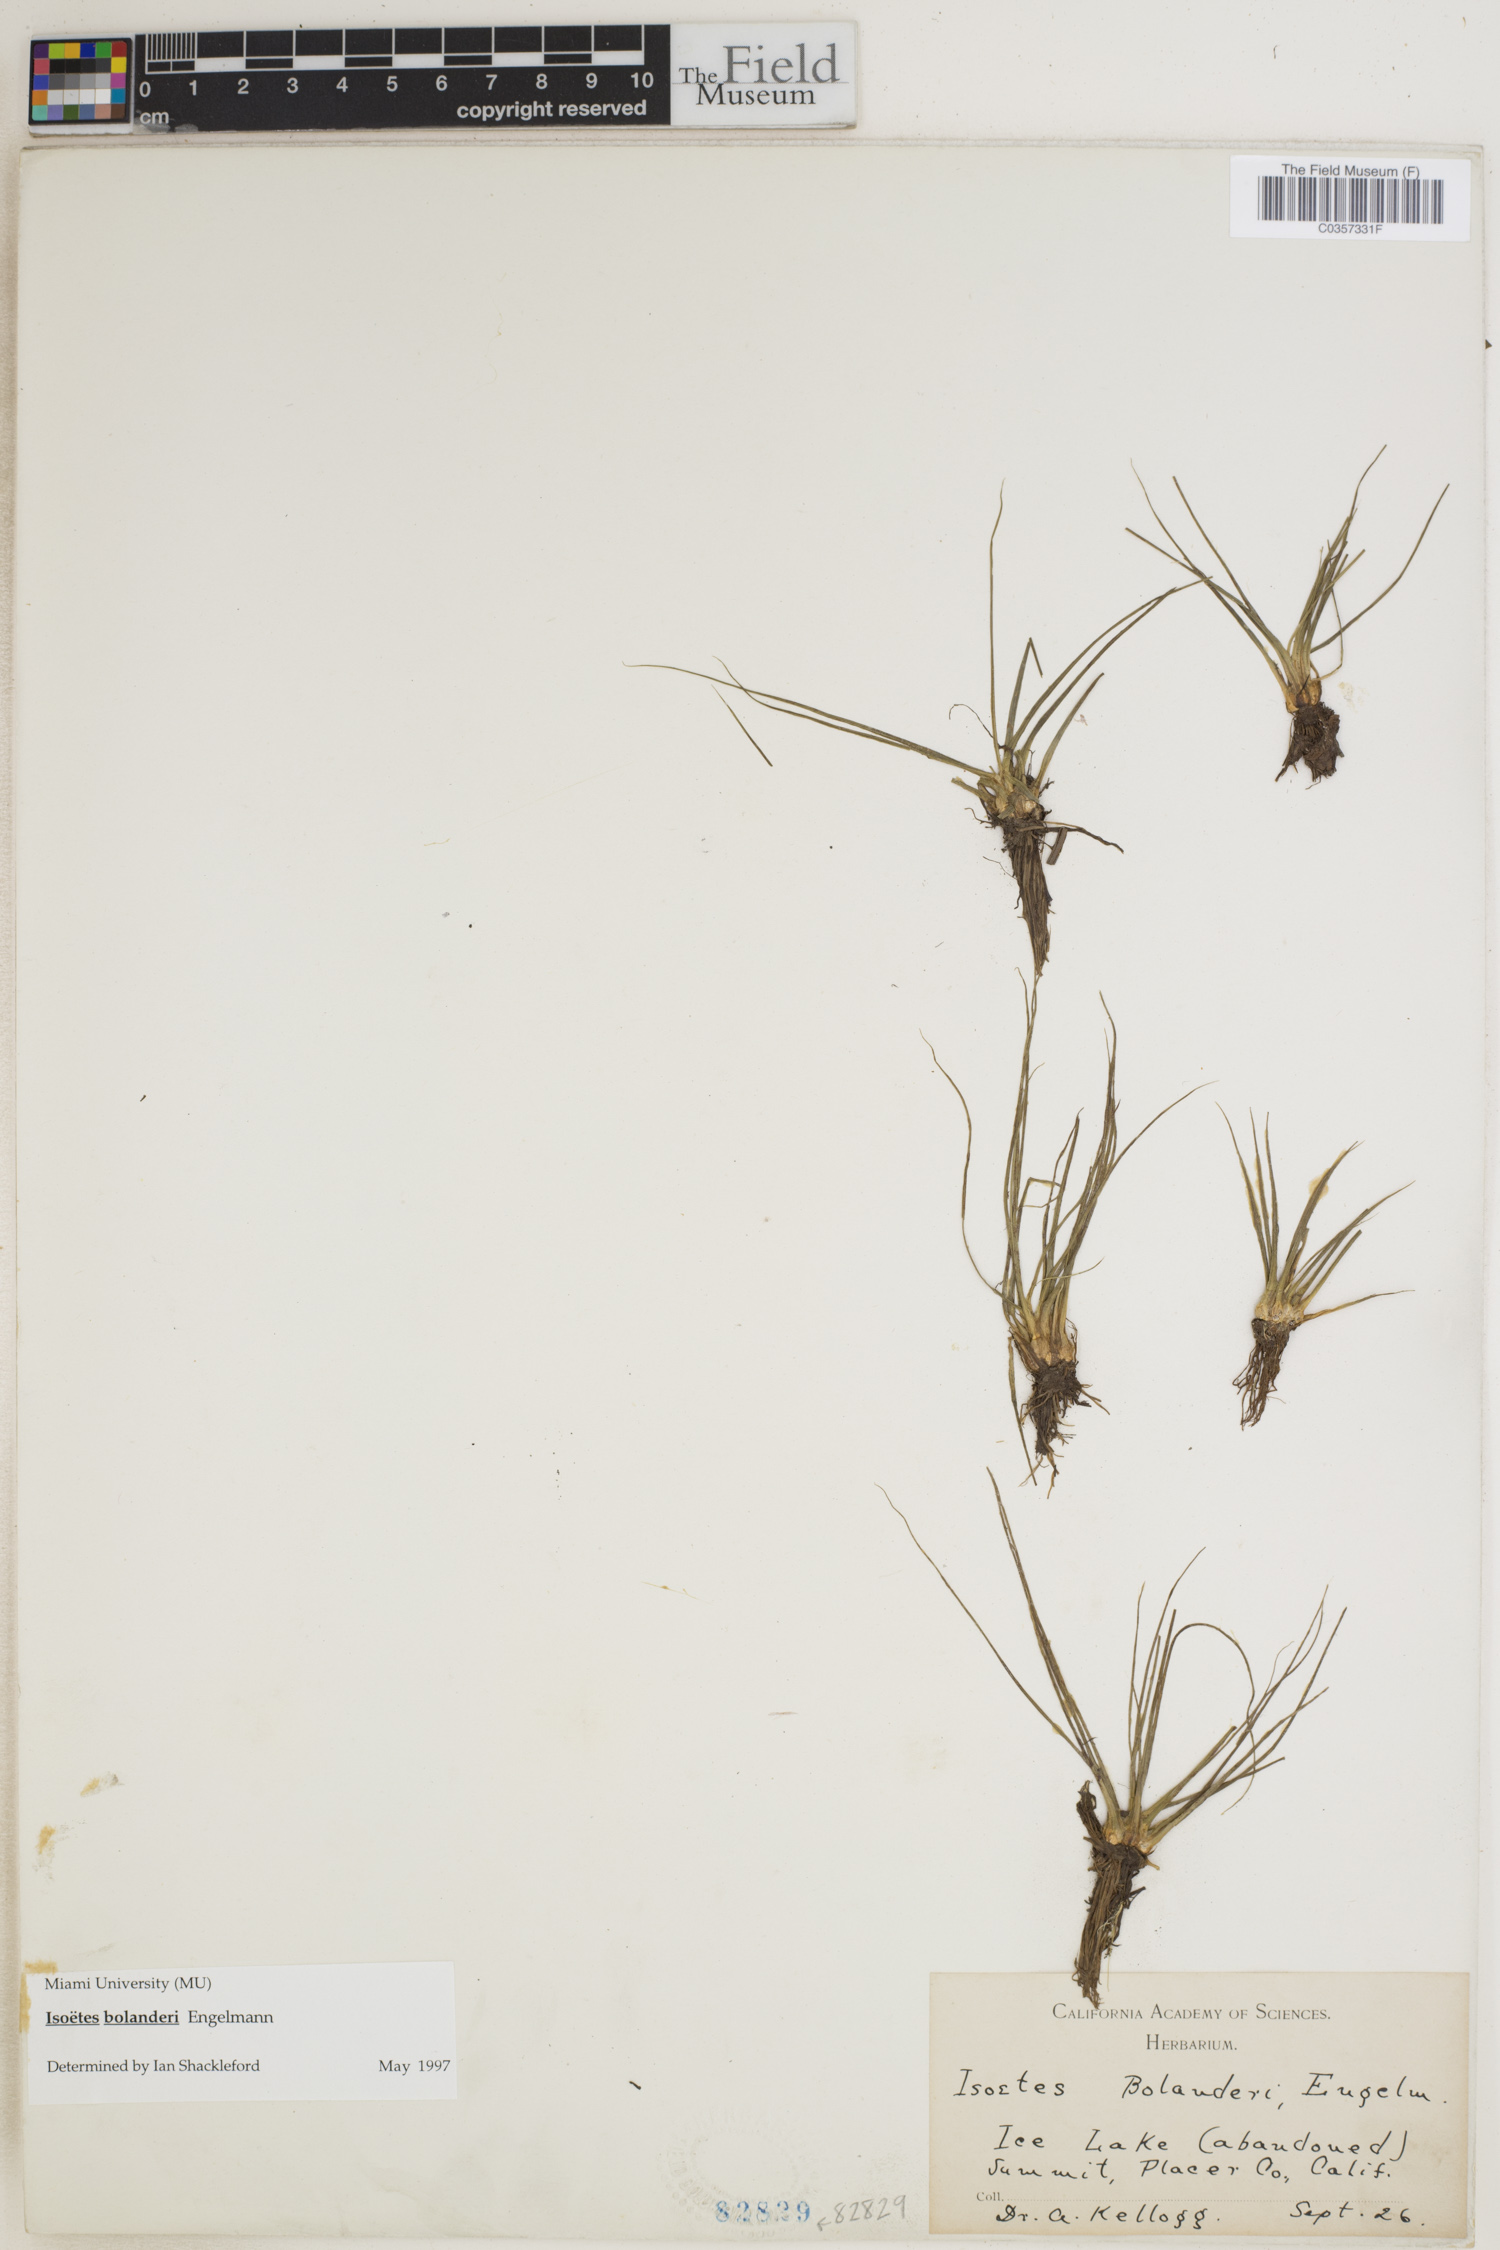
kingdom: Plantae
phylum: Tracheophyta
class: Lycopodiopsida
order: Isoetales
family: Isoetaceae
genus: Isoetes
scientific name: Isoetes bolanderi
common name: Bolander's quillwort
